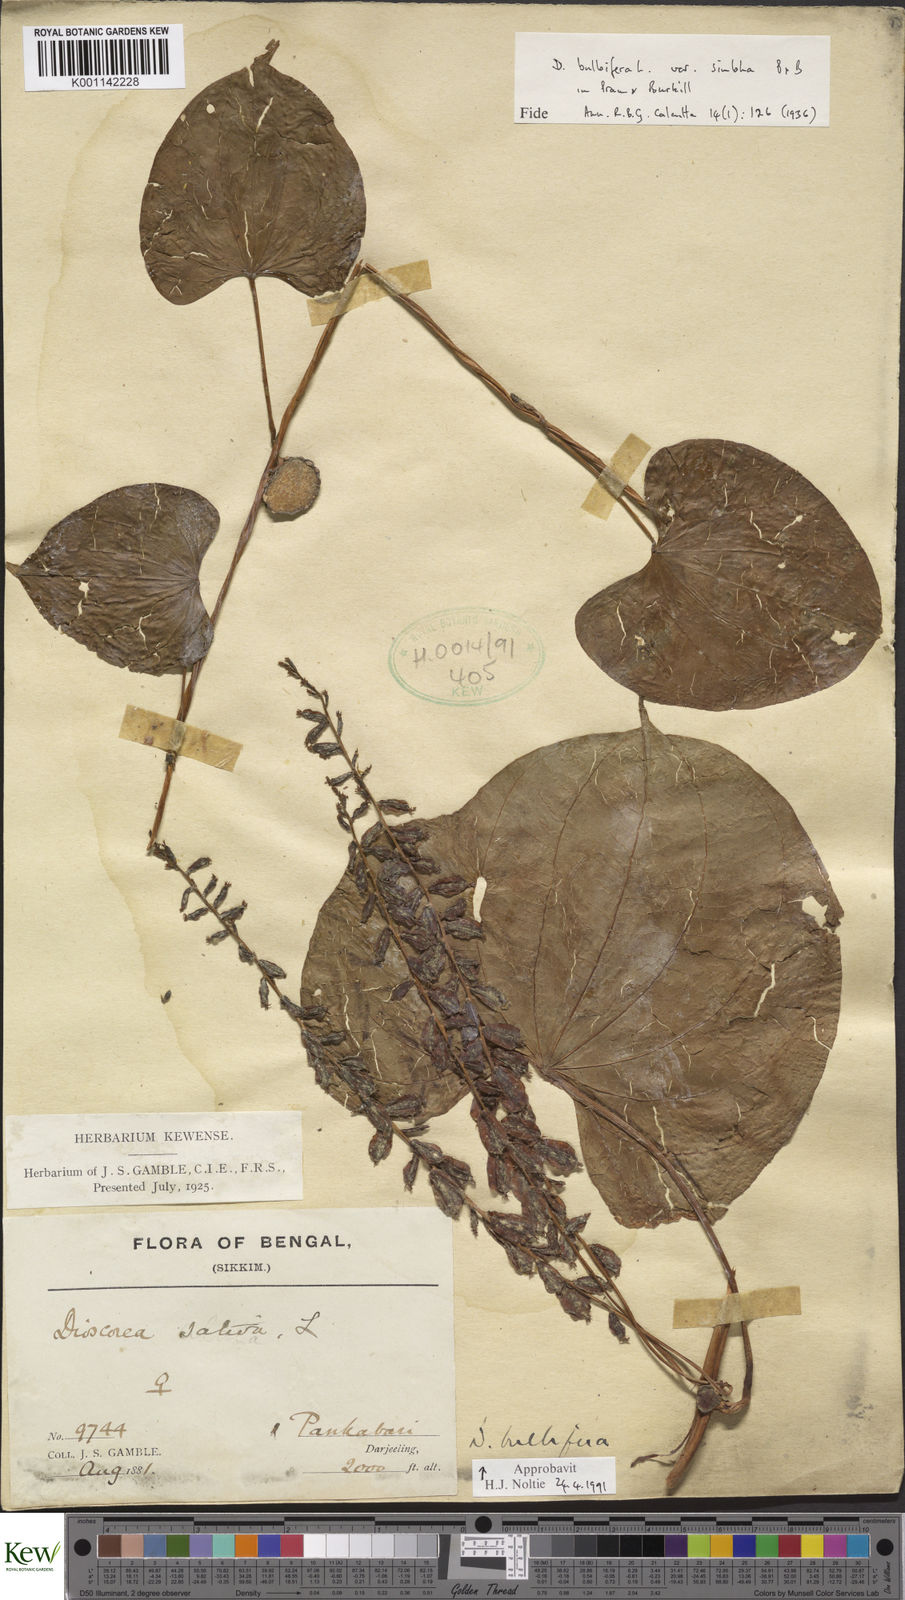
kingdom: Plantae
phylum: Tracheophyta
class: Liliopsida
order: Dioscoreales
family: Dioscoreaceae
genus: Dioscorea
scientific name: Dioscorea bulbifera
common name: Air yam
